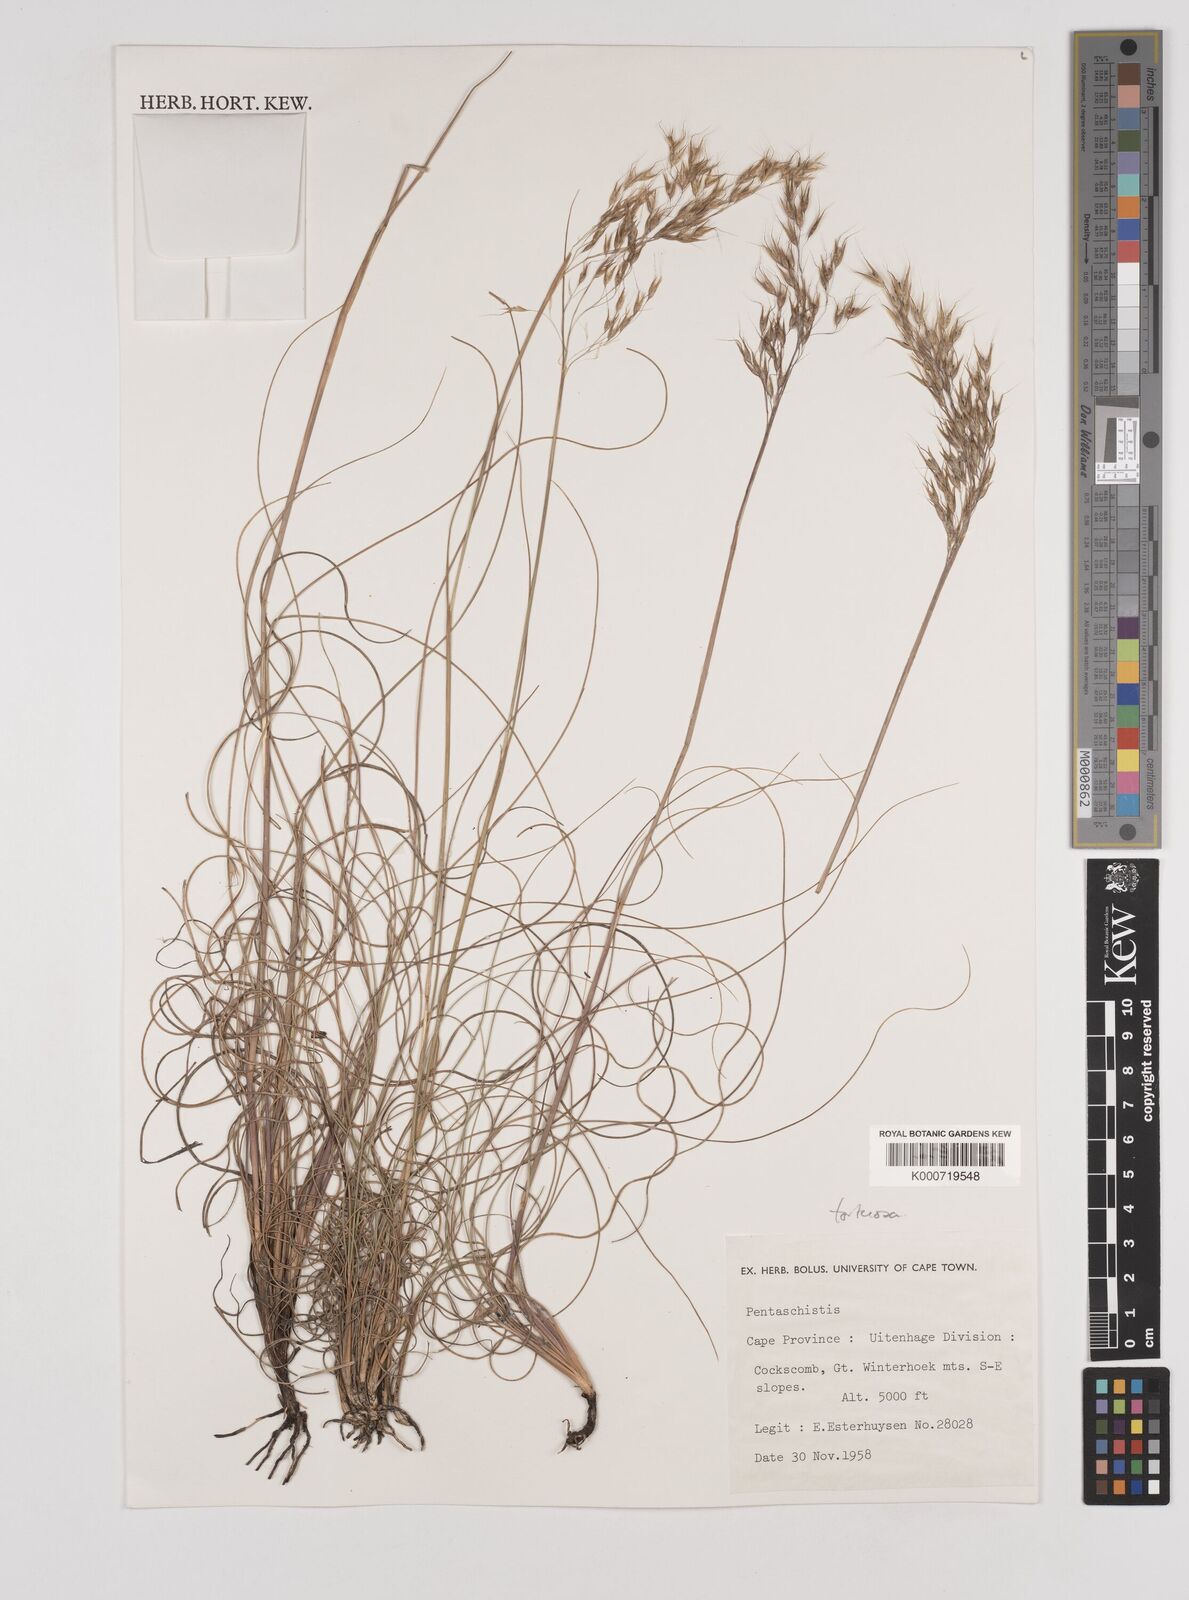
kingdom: Plantae
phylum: Tracheophyta
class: Liliopsida
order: Poales
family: Poaceae
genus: Pentameris
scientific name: Pentameris tortuosa
